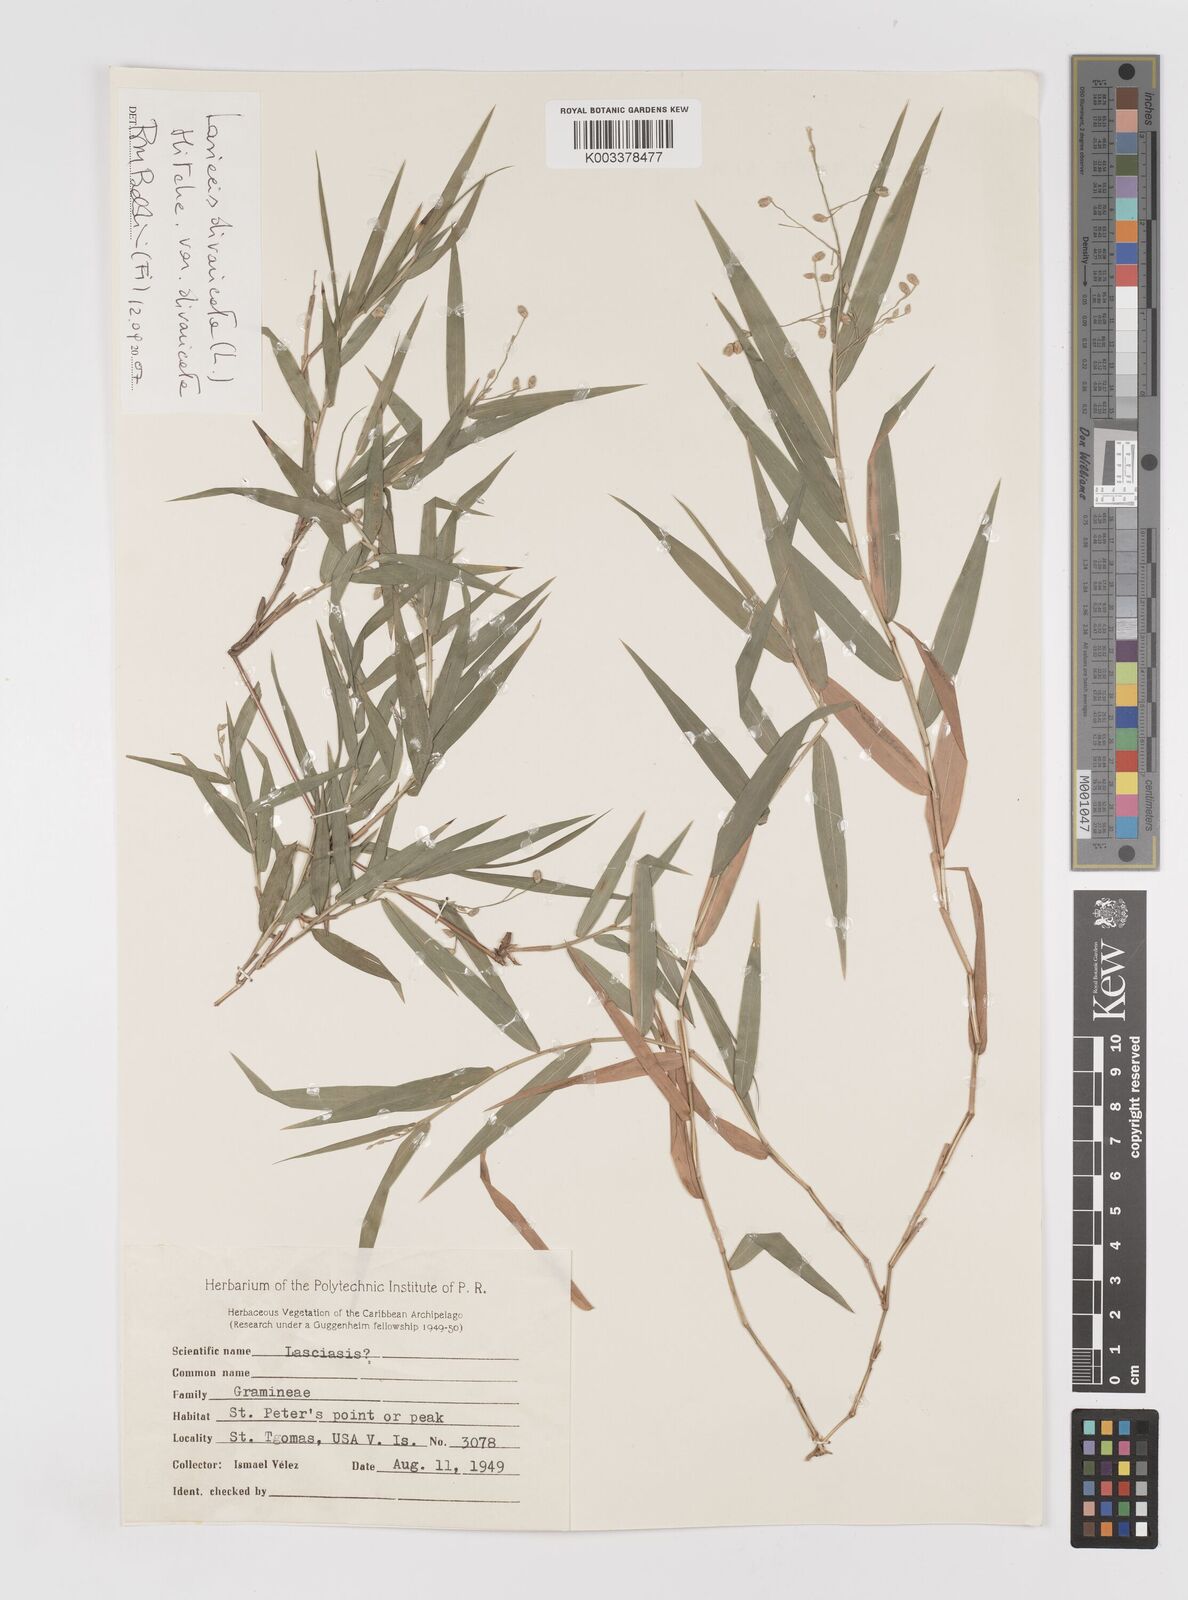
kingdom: Plantae
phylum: Tracheophyta
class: Liliopsida
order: Poales
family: Poaceae
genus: Lasiacis
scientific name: Lasiacis divaricata
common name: Smallcane
